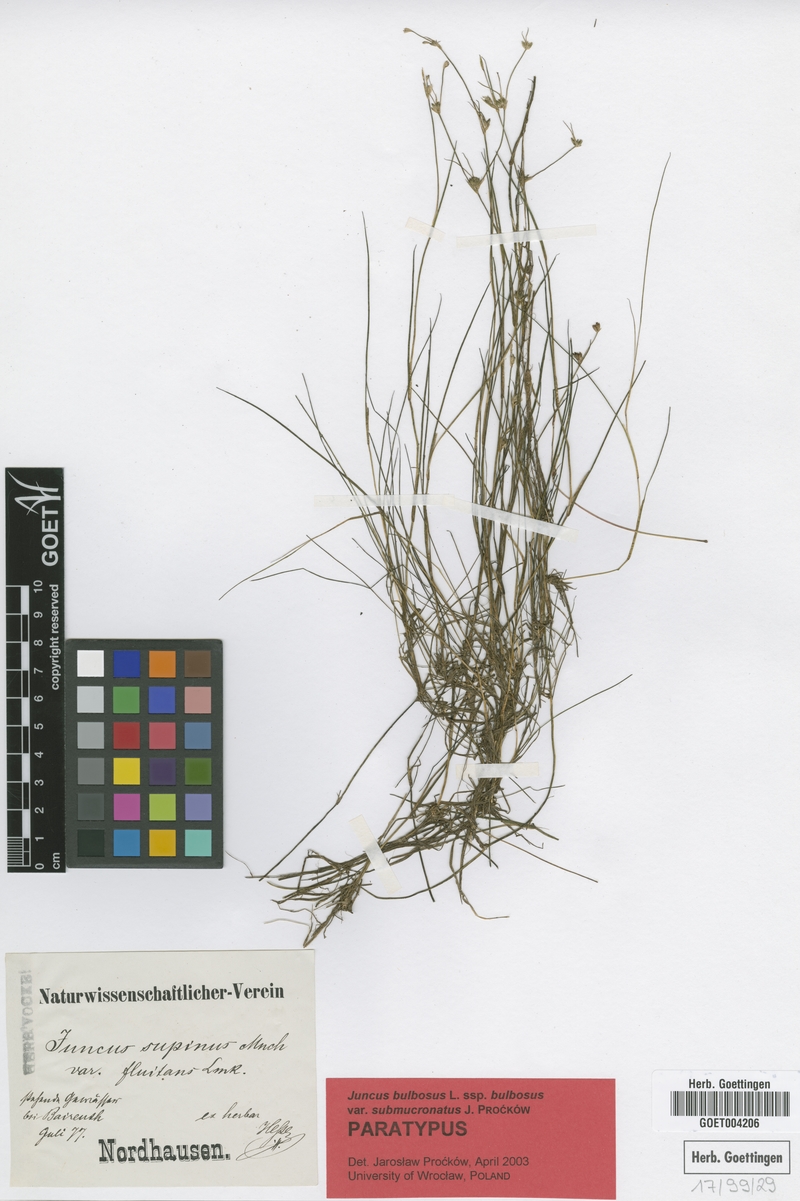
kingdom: Plantae
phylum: Tracheophyta
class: Liliopsida
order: Poales
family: Juncaceae
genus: Juncus
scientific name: Juncus bulbosus
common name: Bulbous rush
